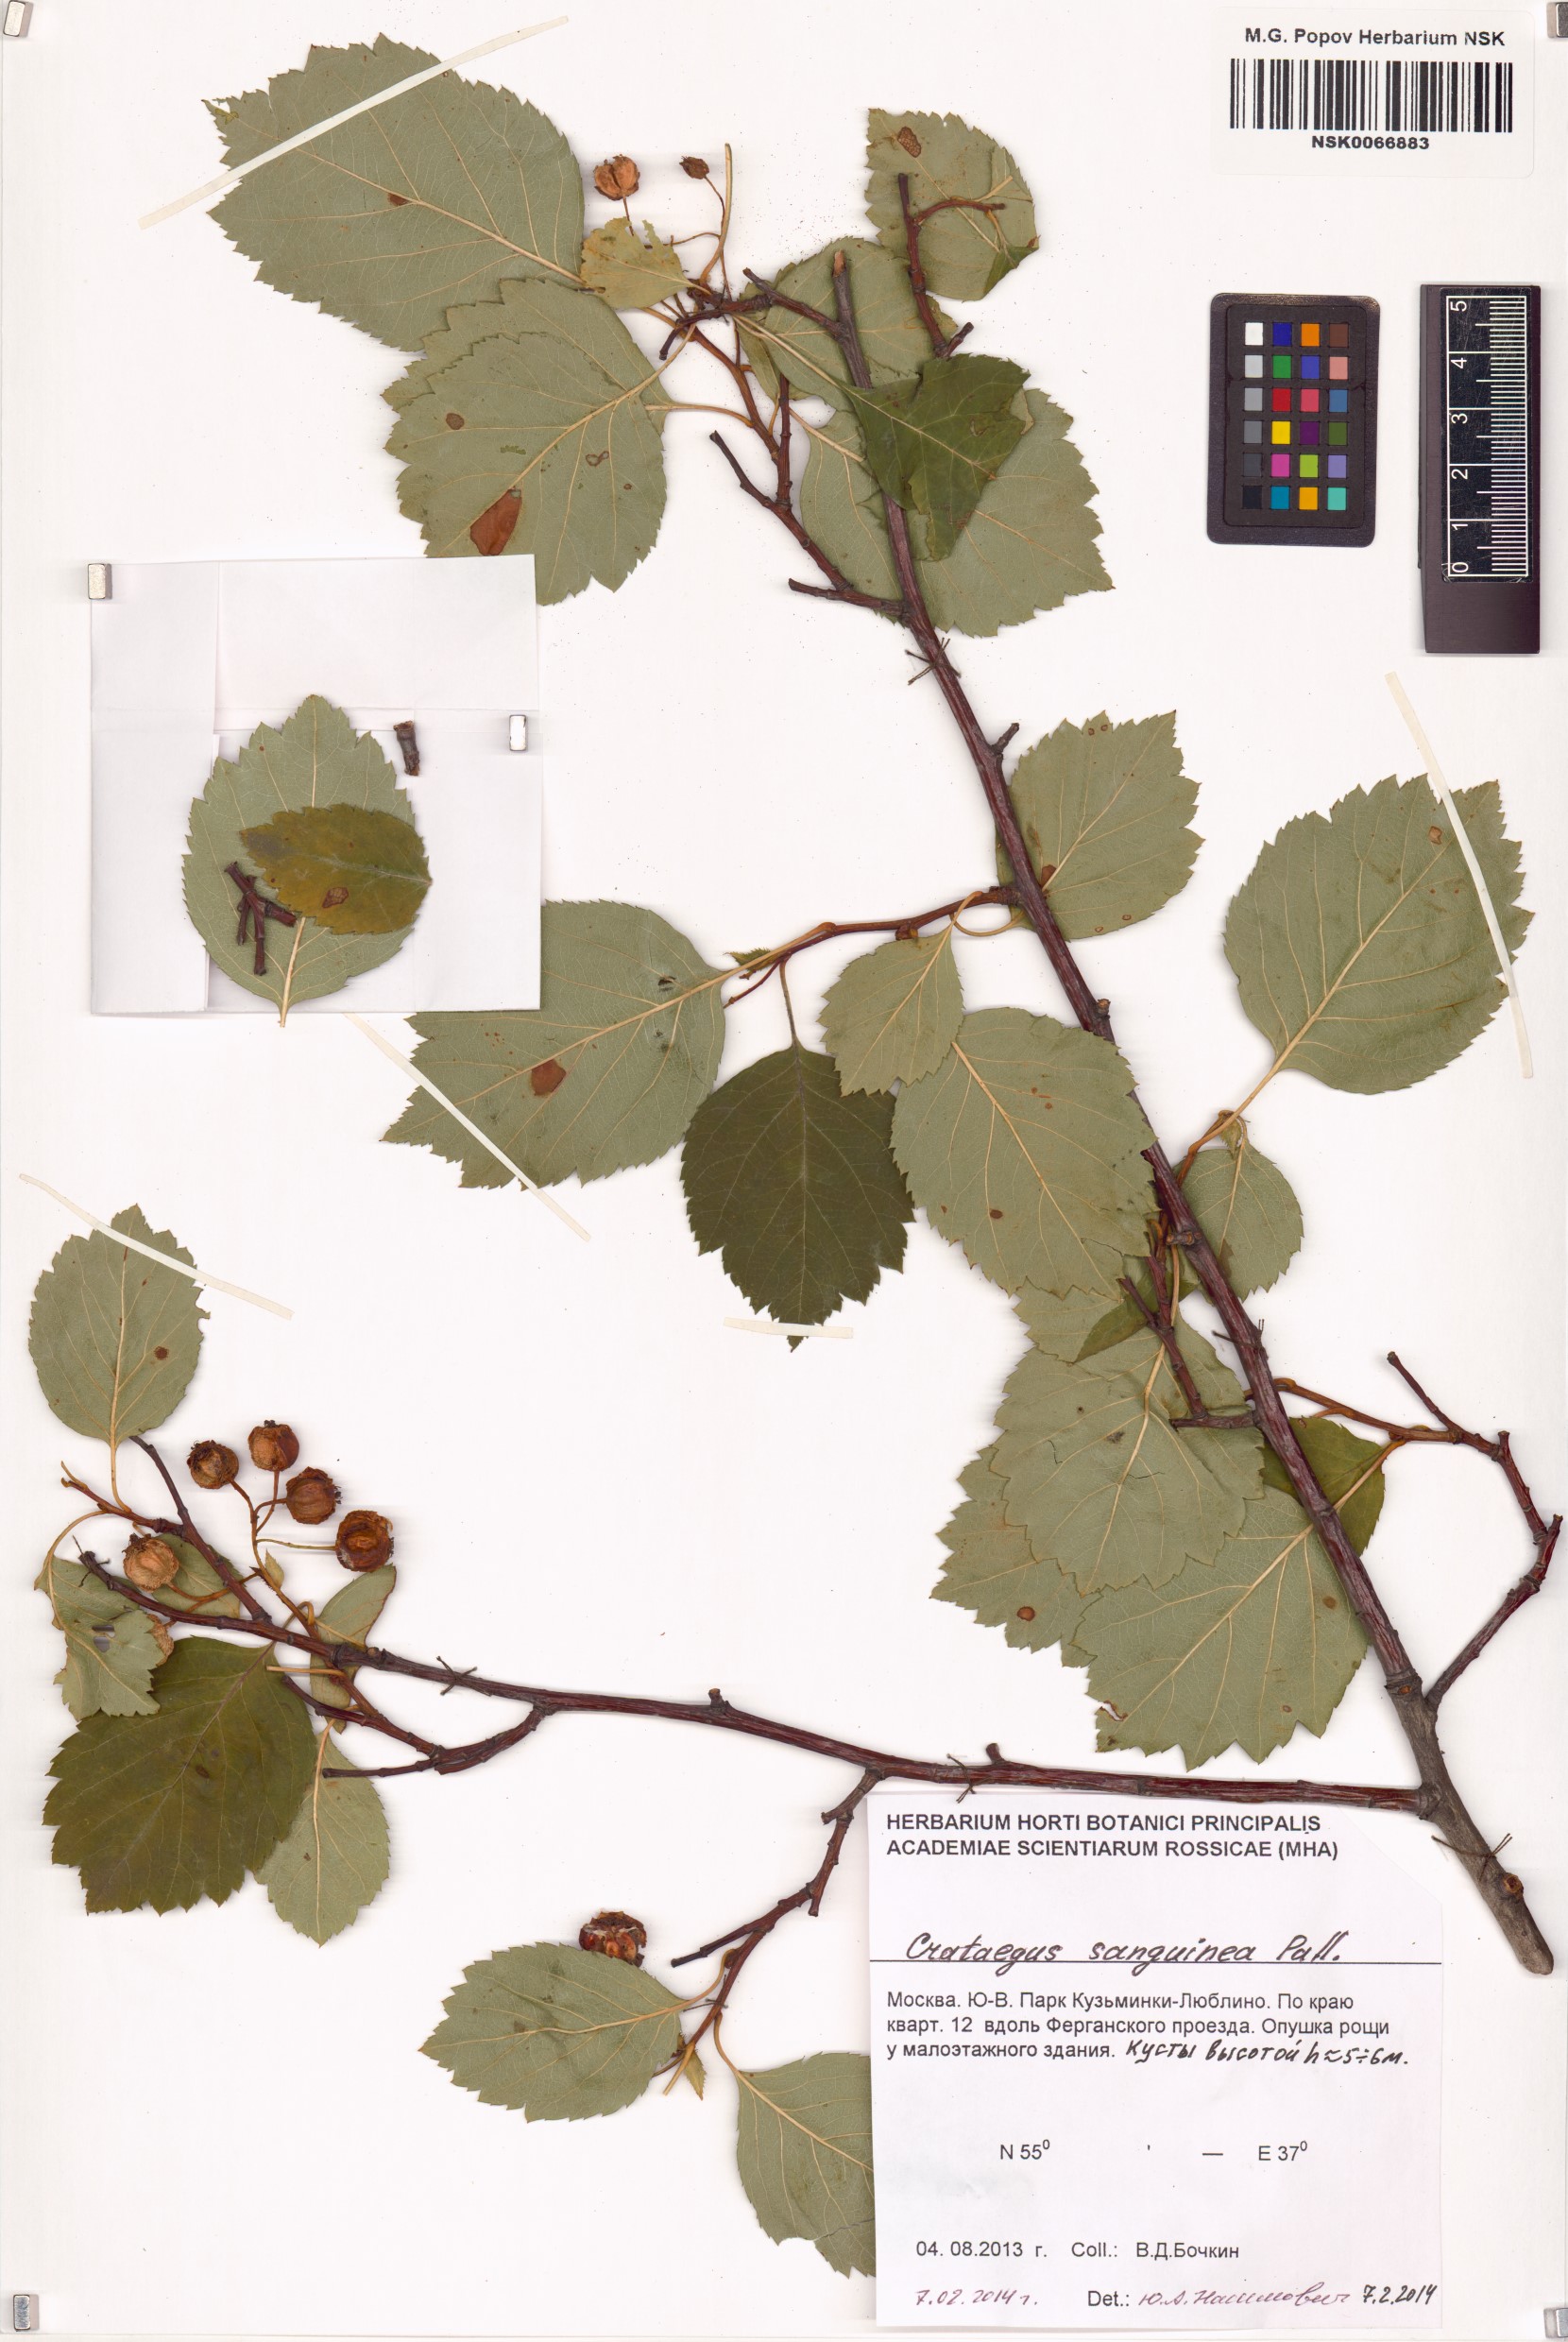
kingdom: Plantae
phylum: Tracheophyta
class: Magnoliopsida
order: Rosales
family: Rosaceae
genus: Crataegus
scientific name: Crataegus sanguinea
